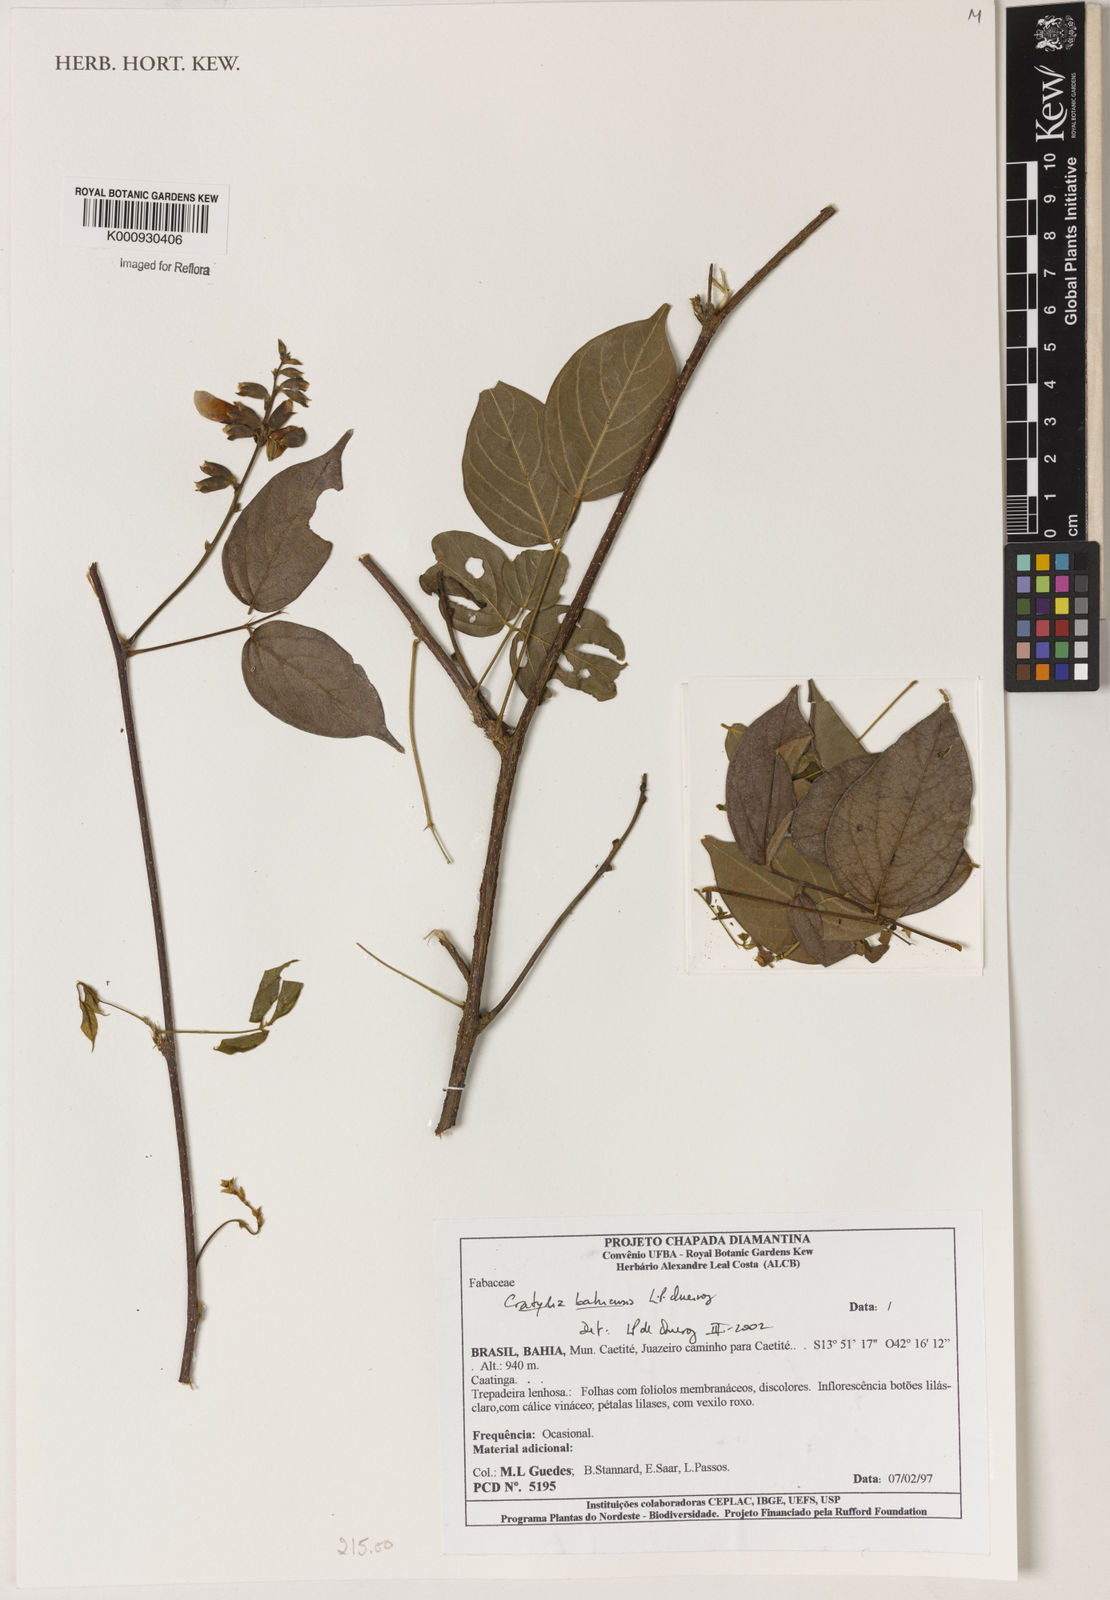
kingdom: Plantae
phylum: Tracheophyta
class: Magnoliopsida
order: Fabales
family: Fabaceae
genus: Cratylia
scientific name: Cratylia bahiensis
